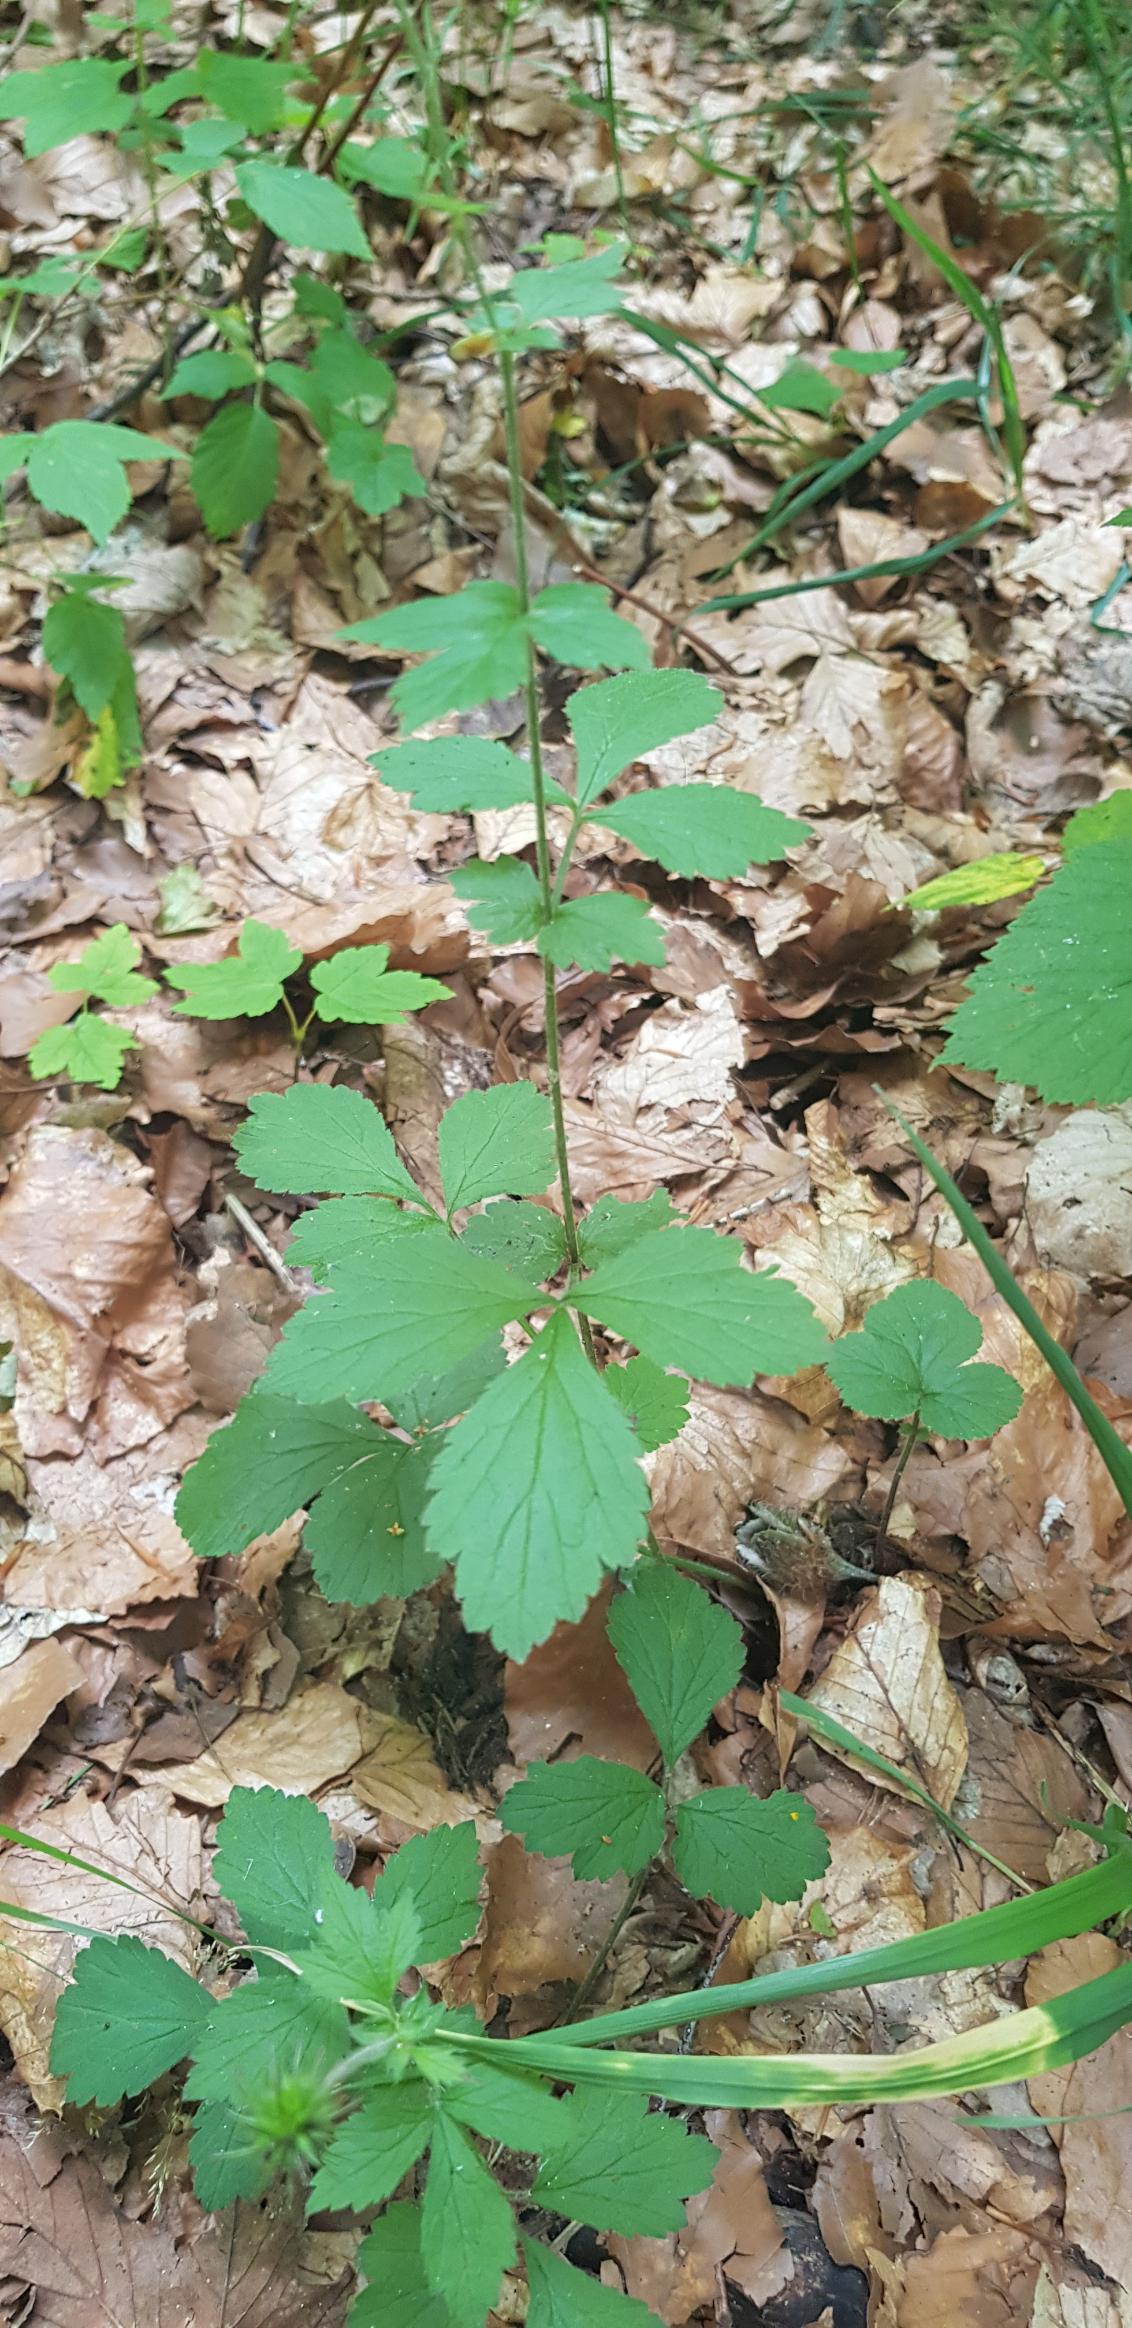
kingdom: Plantae
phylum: Tracheophyta
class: Magnoliopsida
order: Rosales
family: Rosaceae
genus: Geum
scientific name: Geum urbanum
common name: Feber-nellikerod
